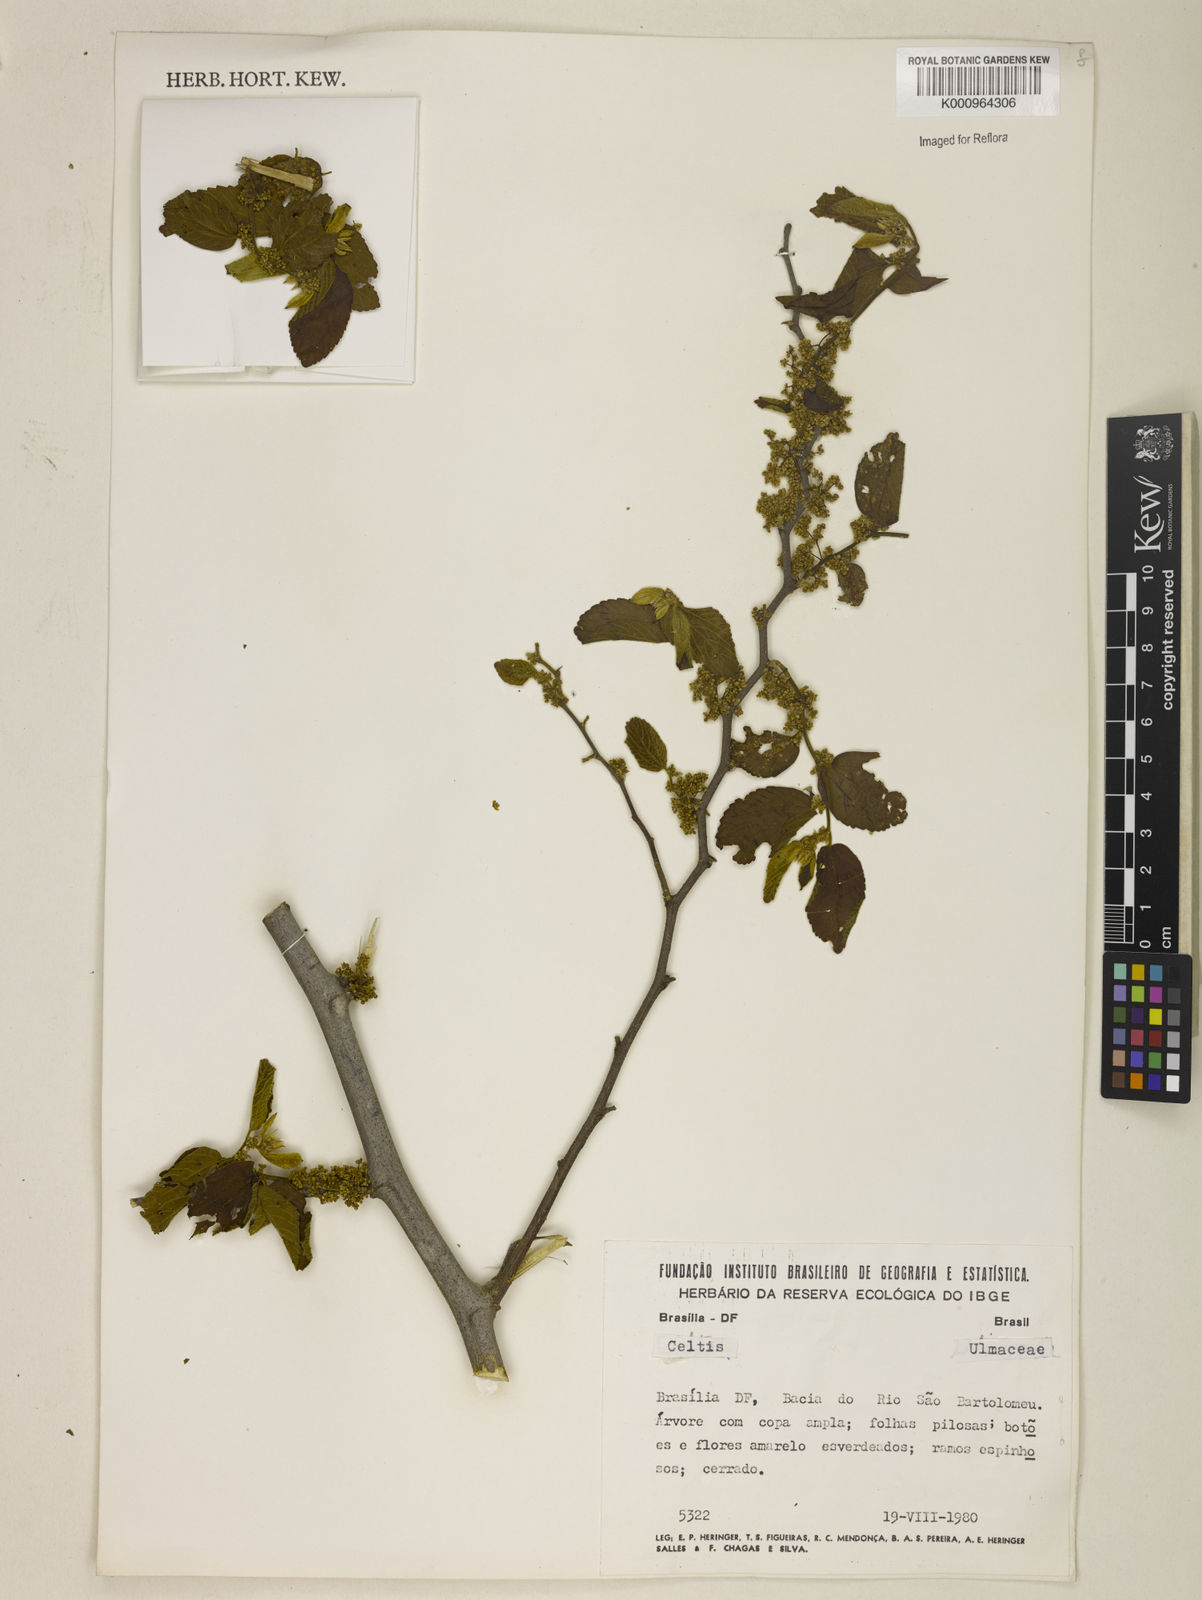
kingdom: Plantae
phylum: Tracheophyta
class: Magnoliopsida
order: Rosales
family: Cannabaceae
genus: Celtis
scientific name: Celtis
